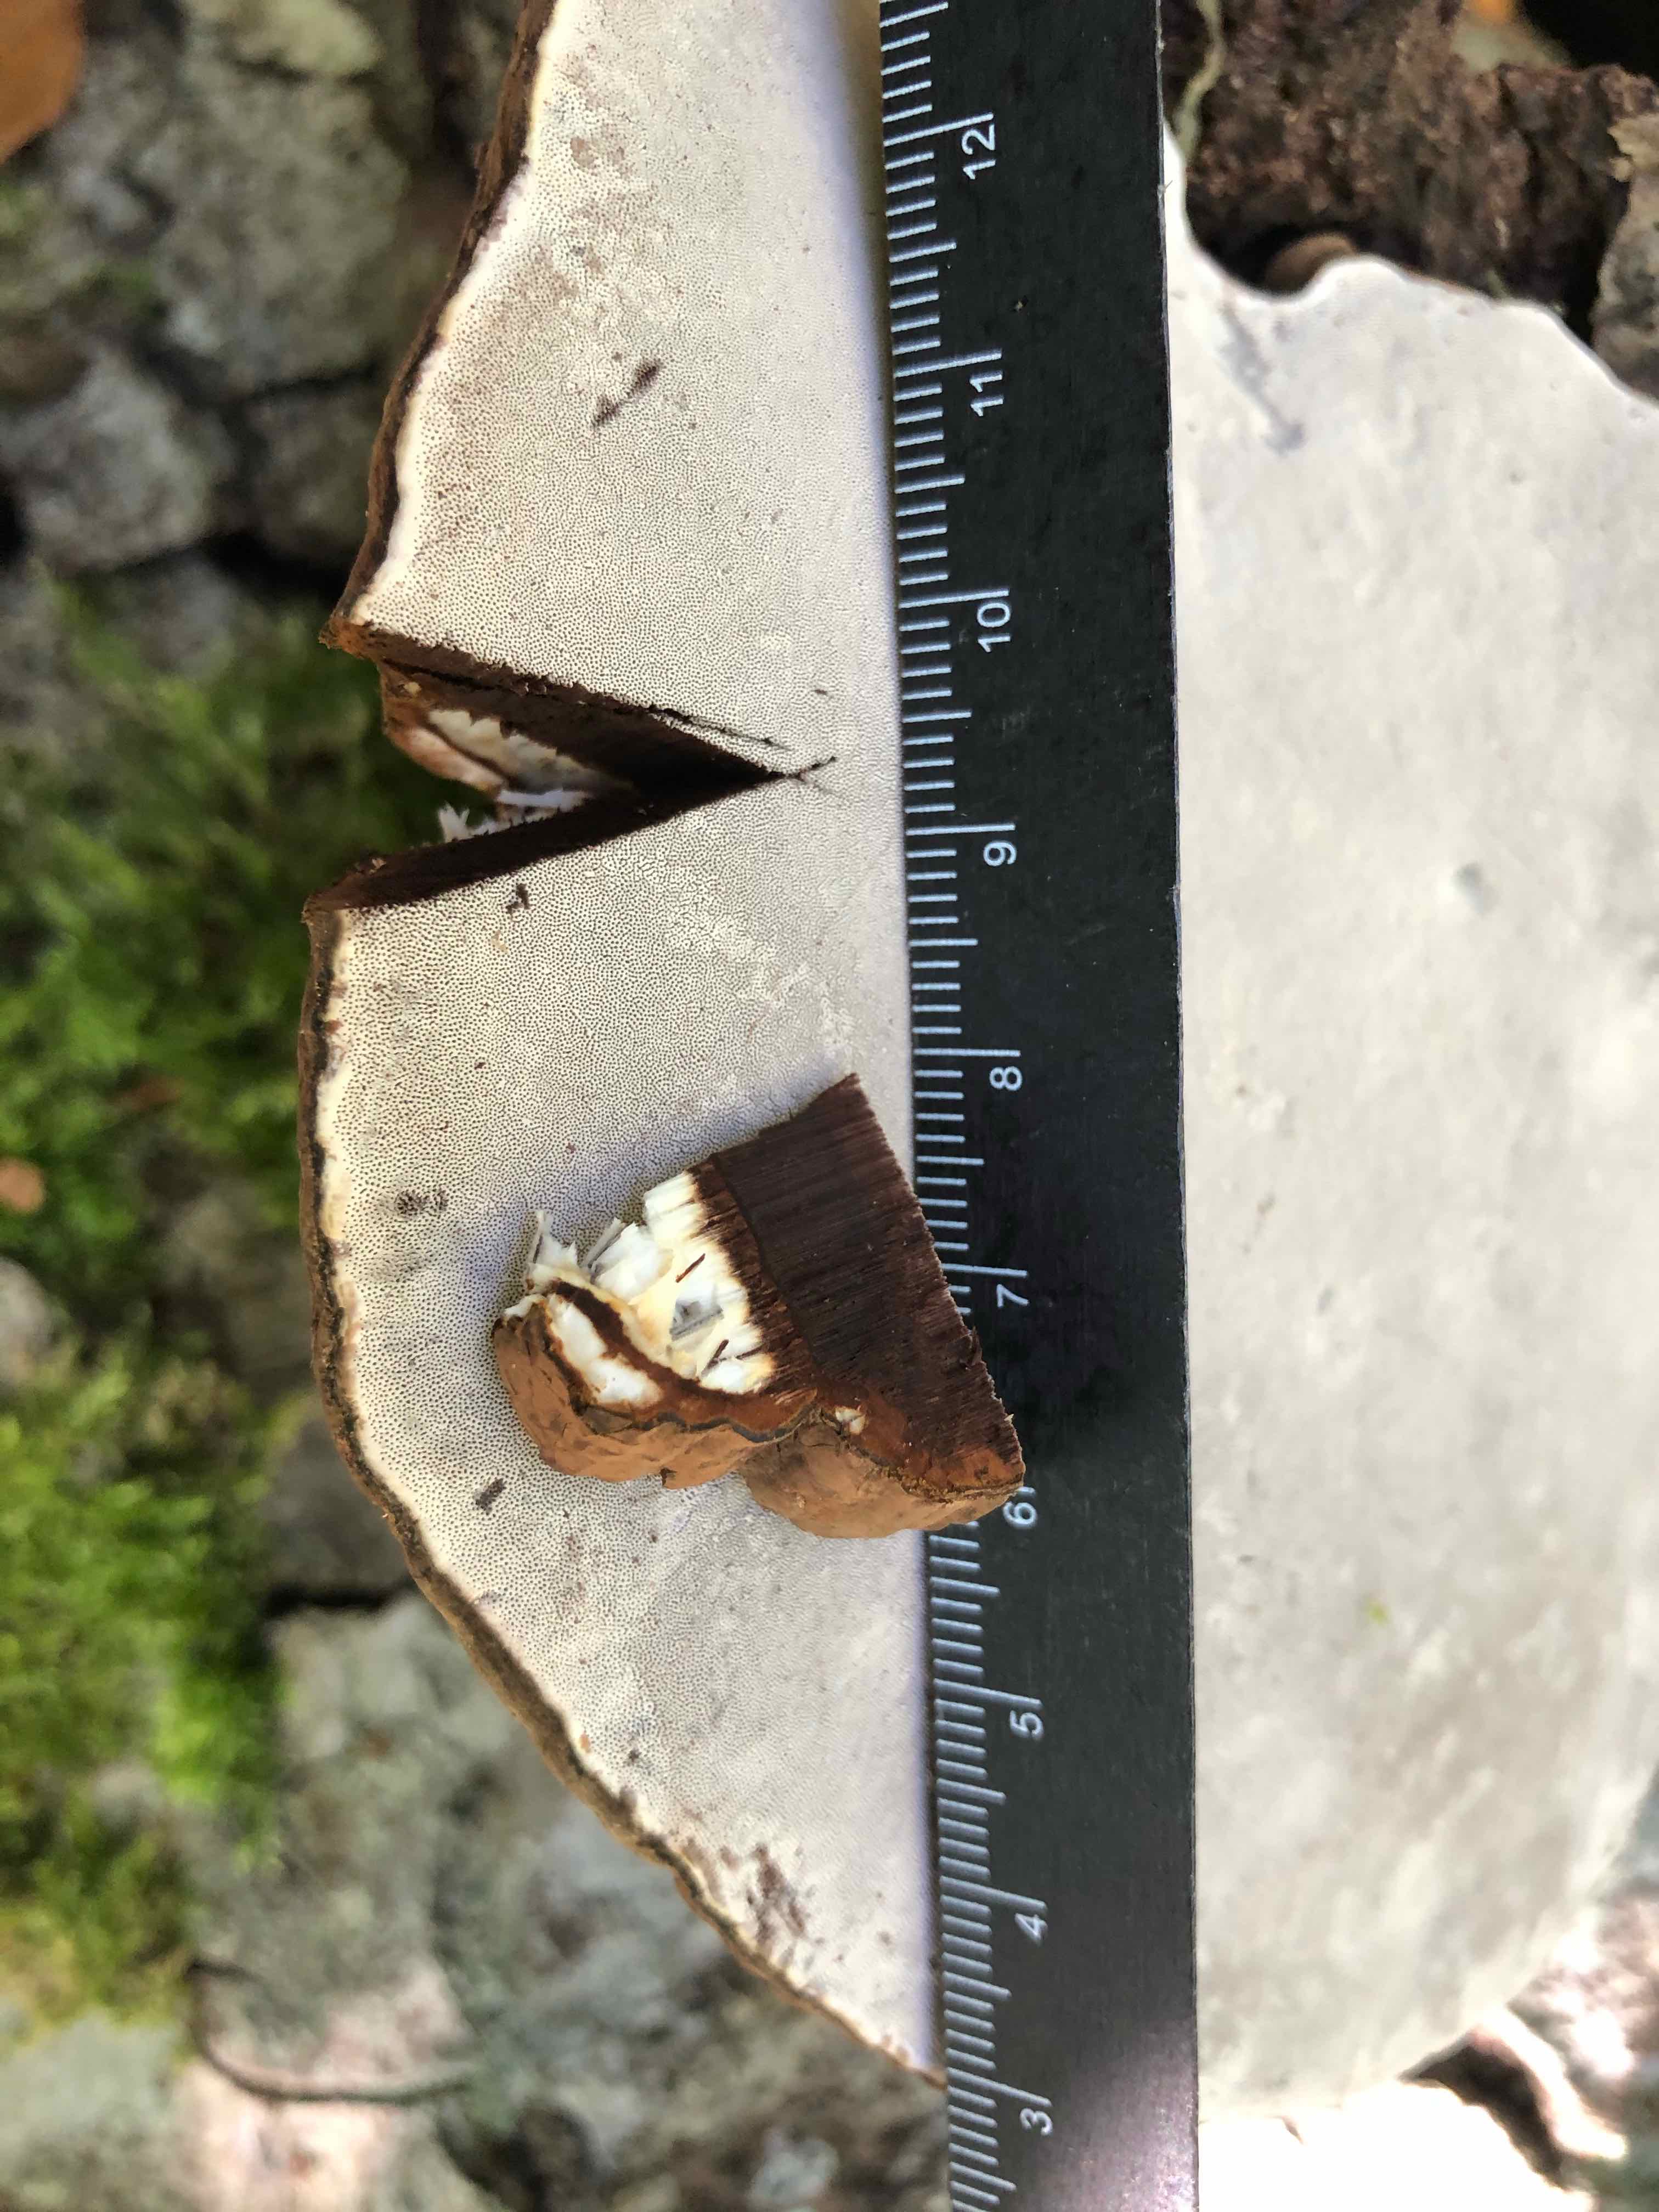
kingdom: Fungi
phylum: Basidiomycota
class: Agaricomycetes
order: Polyporales
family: Polyporaceae
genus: Ganoderma
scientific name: Ganoderma applanatum
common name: flad lakporesvamp
